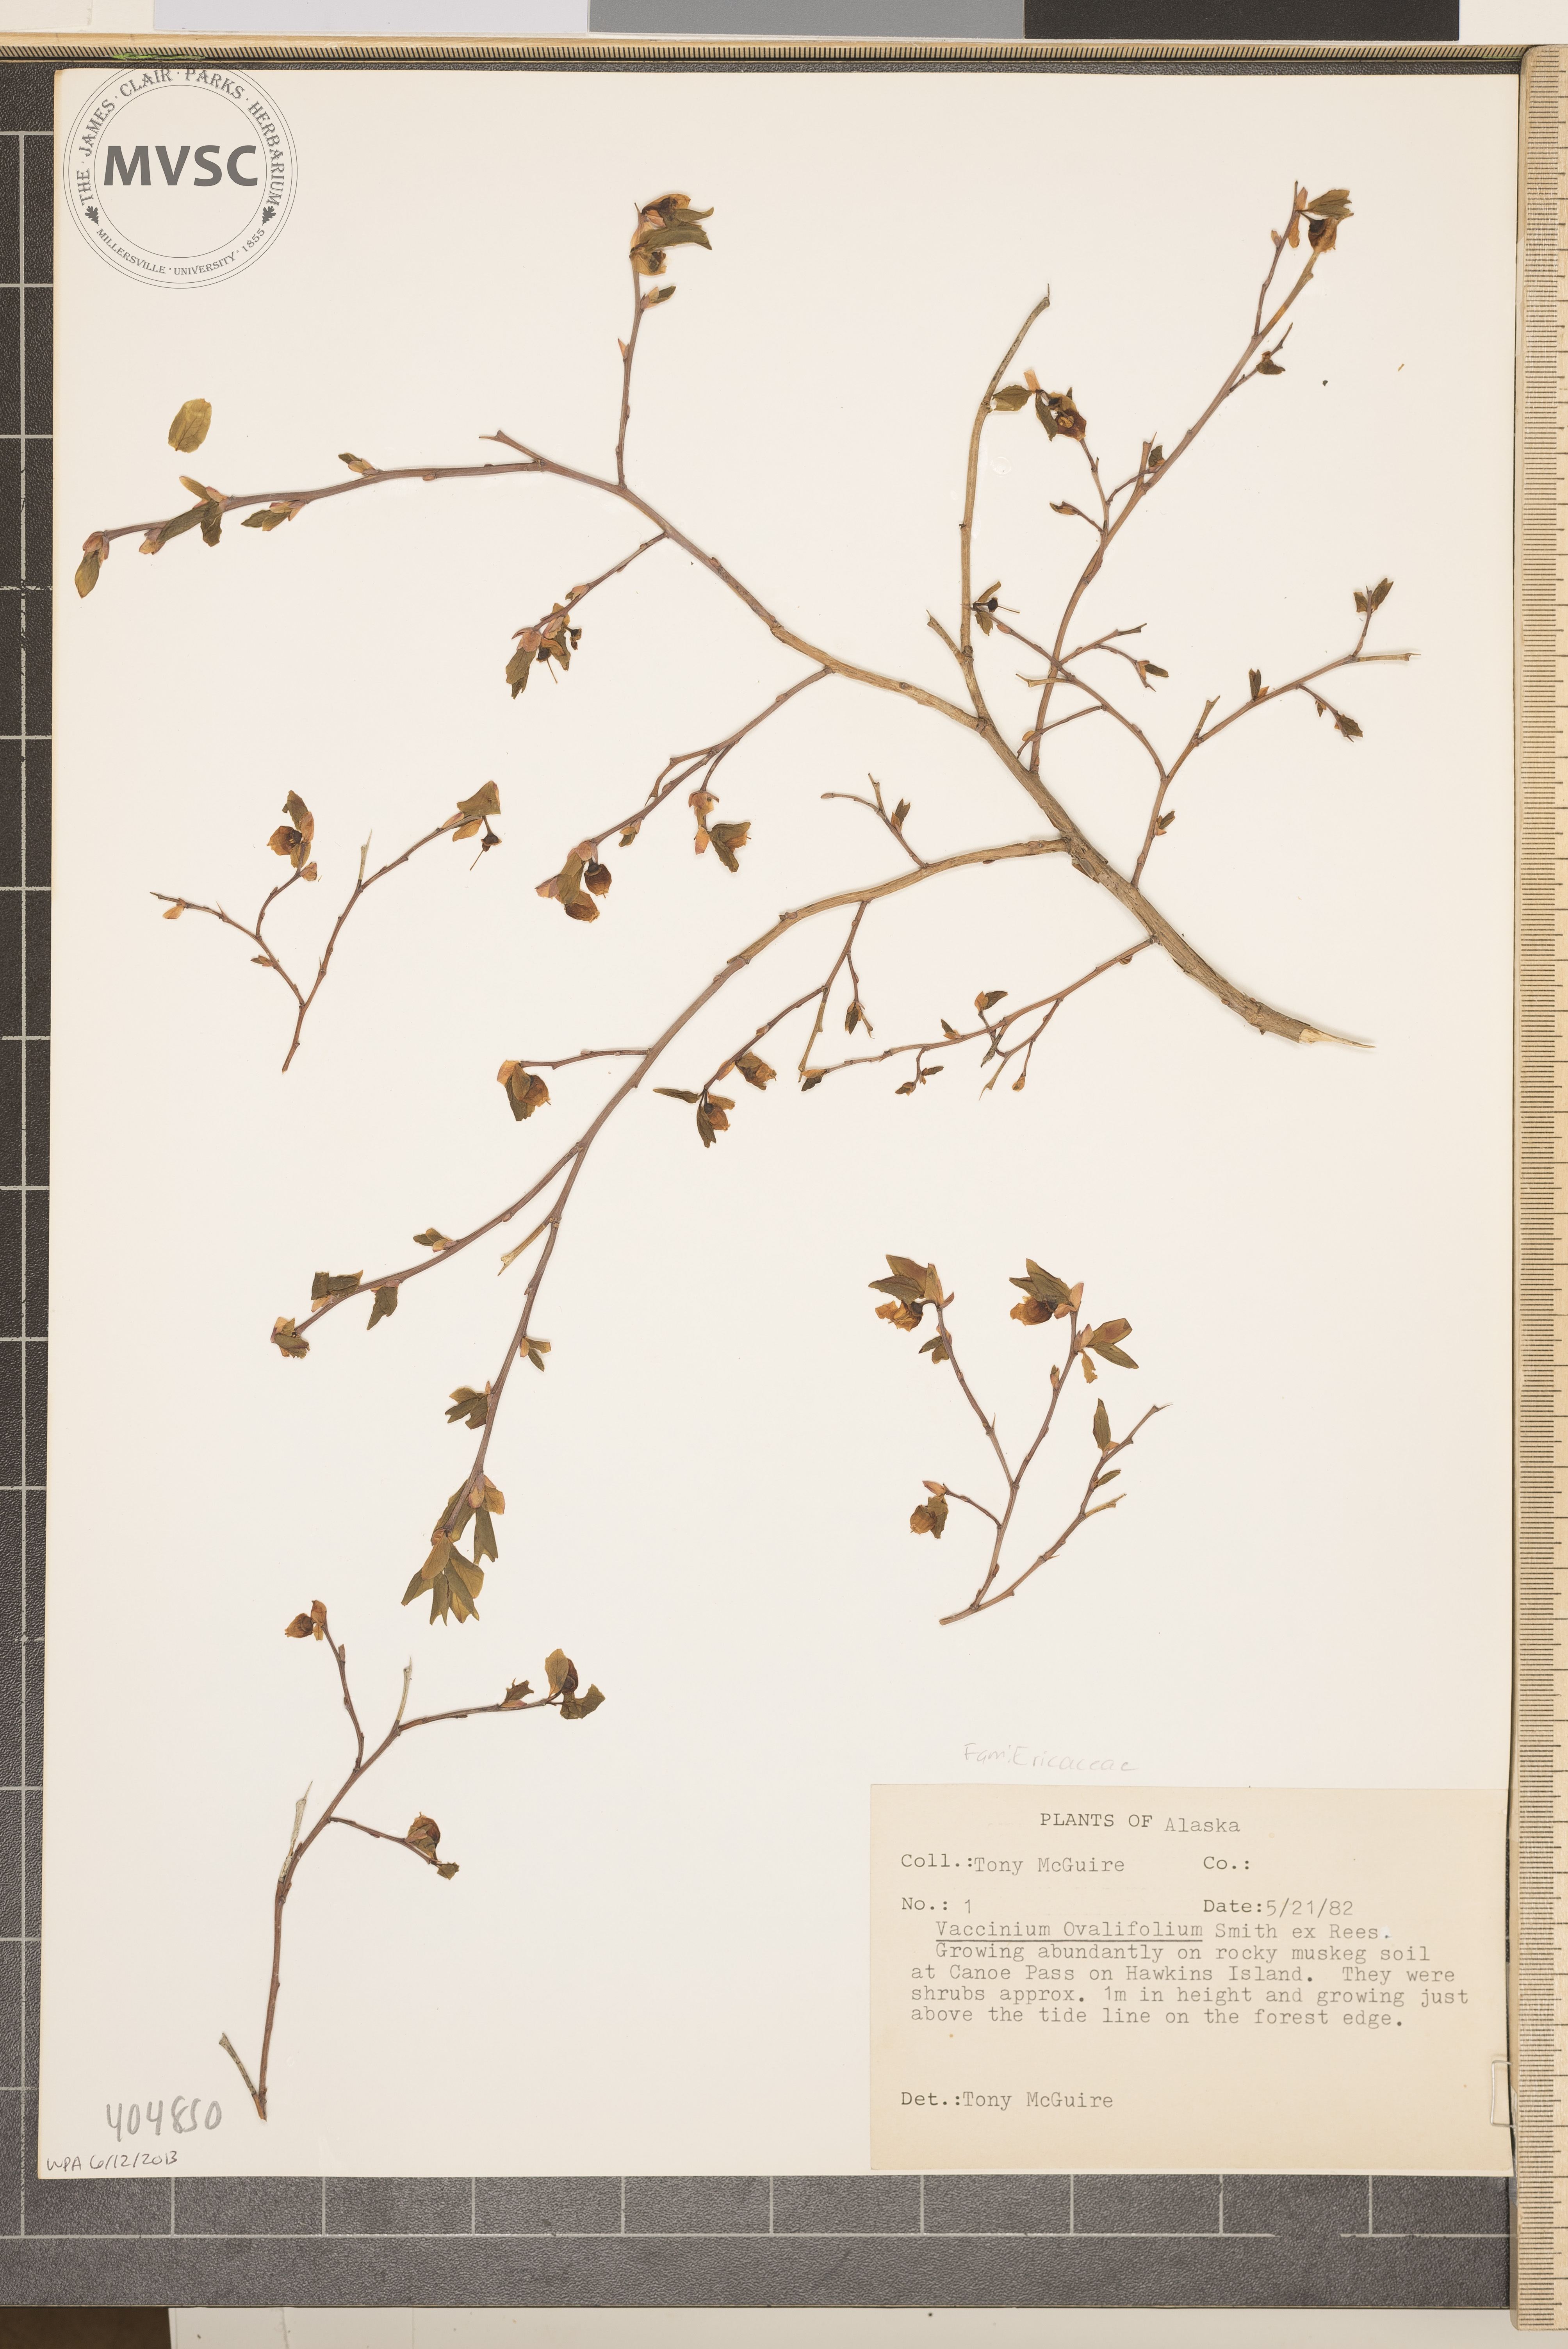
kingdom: Plantae
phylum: Tracheophyta
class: Magnoliopsida
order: Ericales
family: Ericaceae
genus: Vaccinium
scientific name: Vaccinium ovalifolium
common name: Early blueberry
